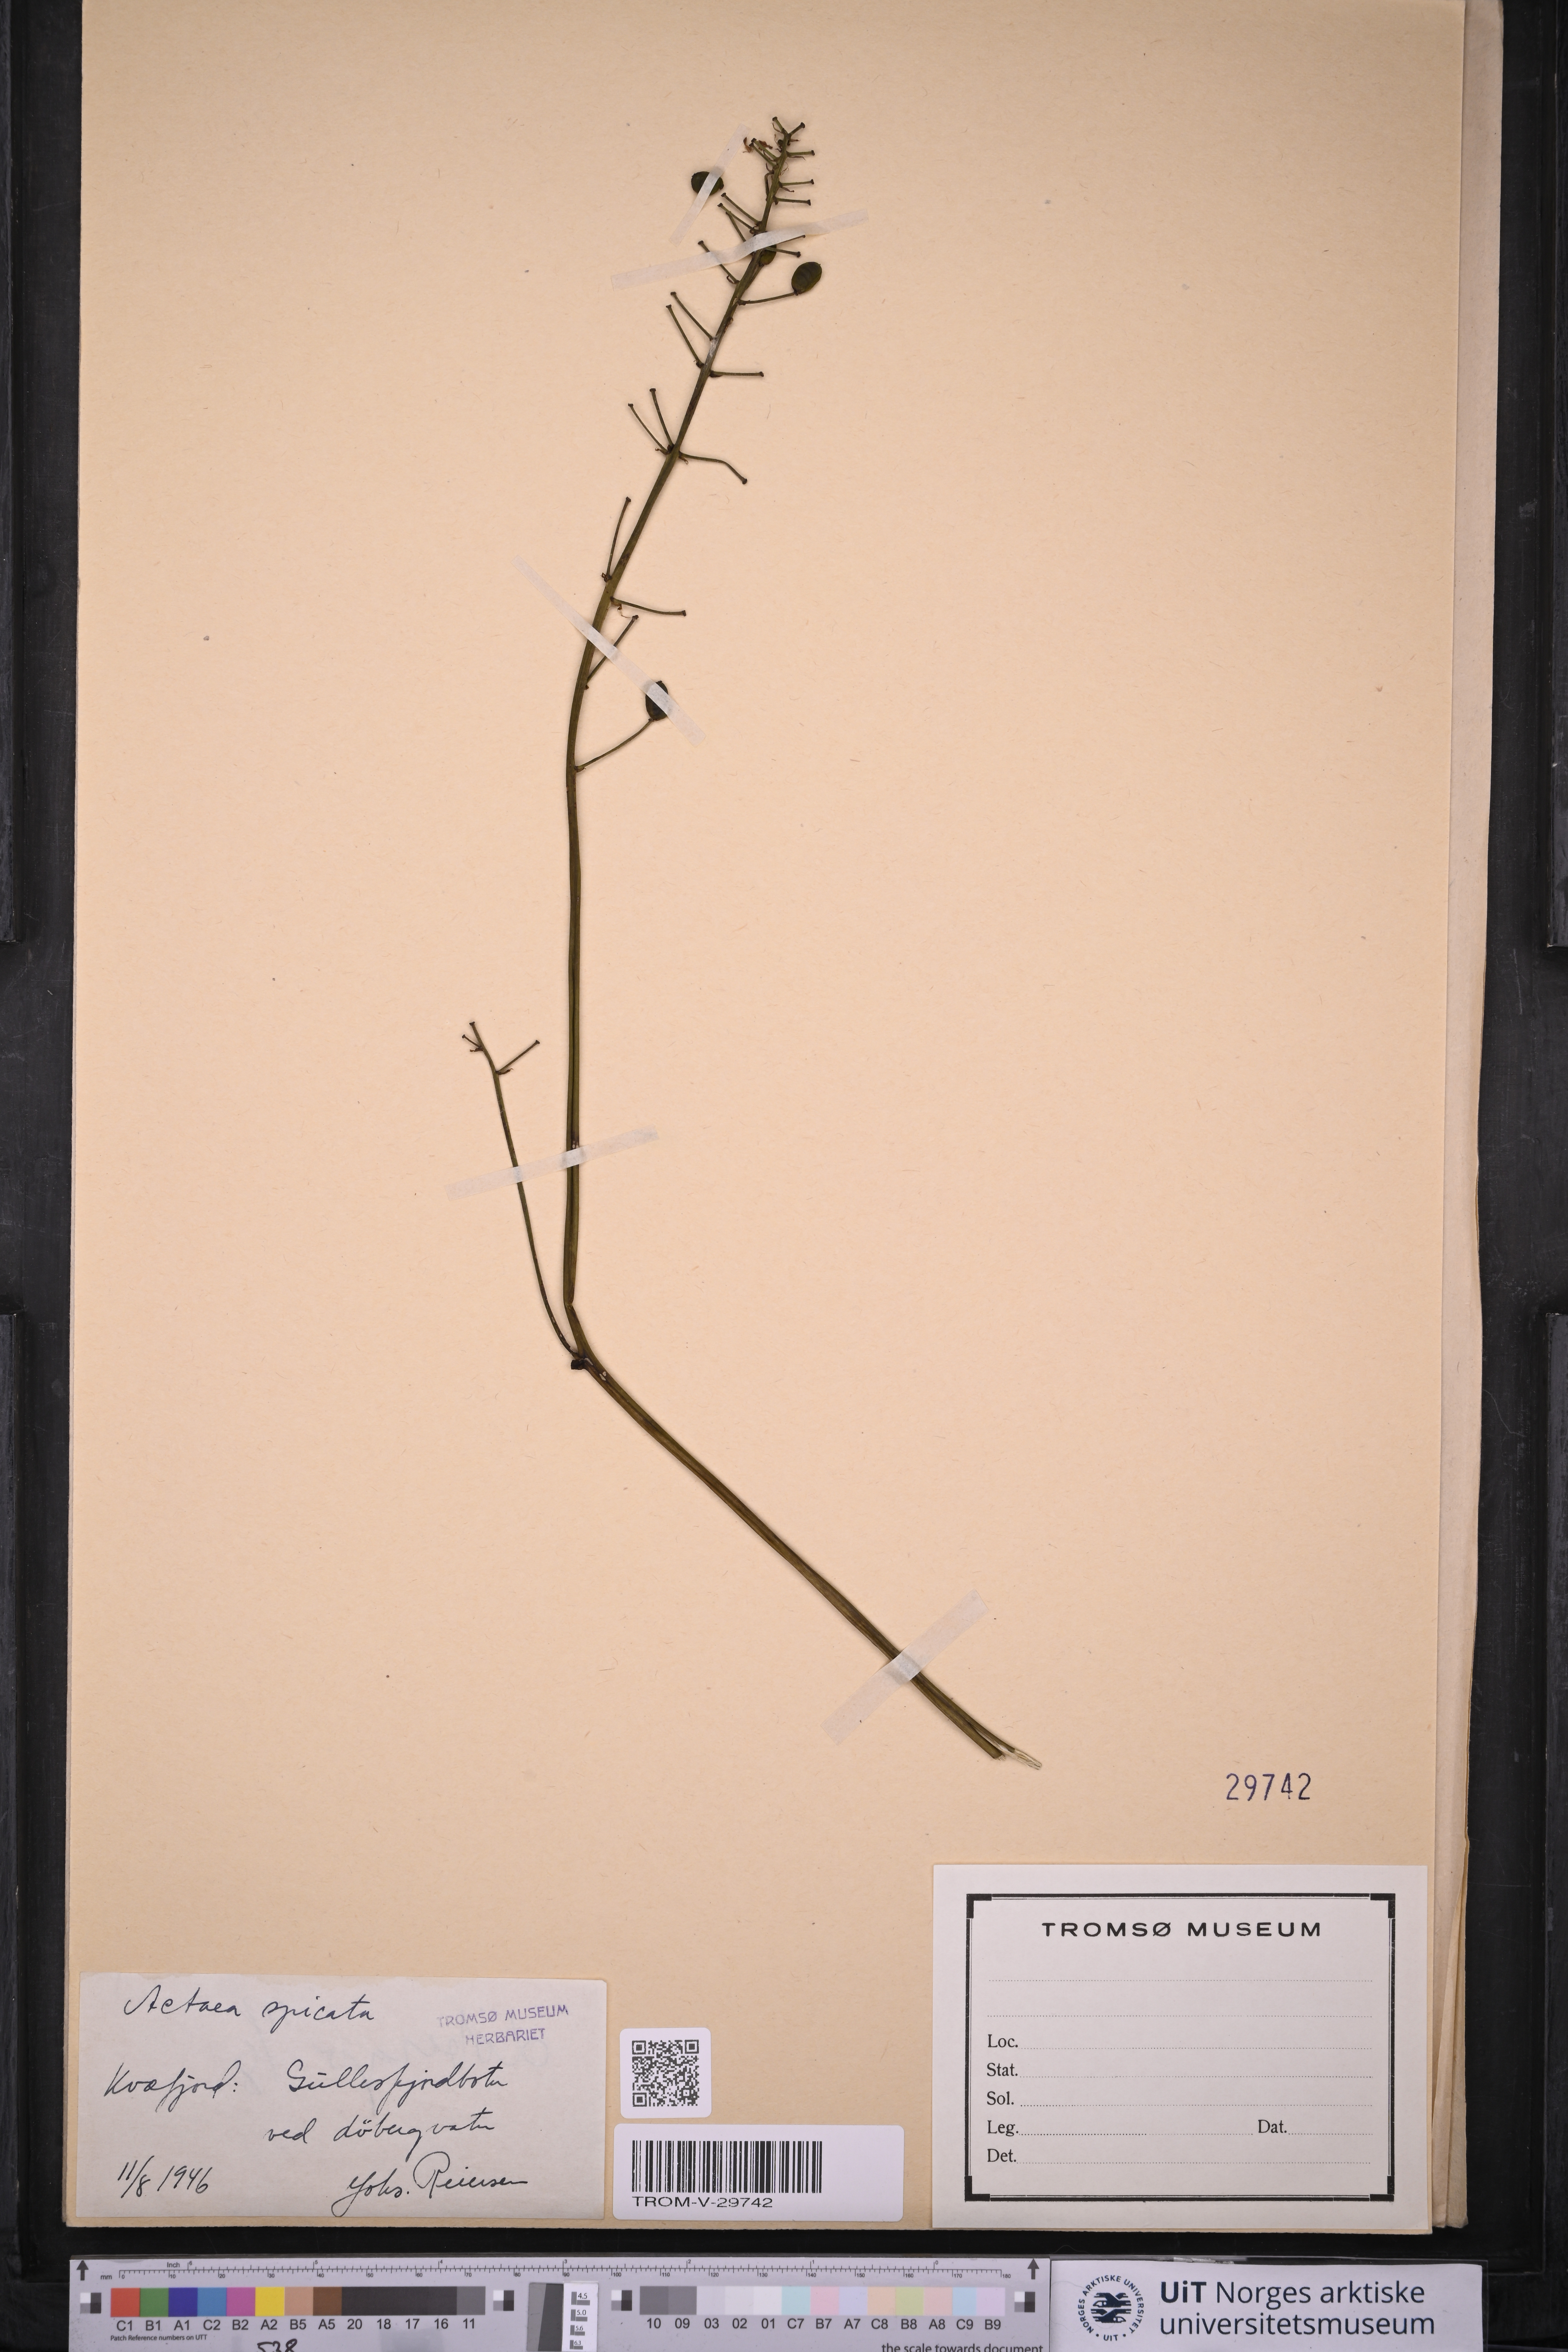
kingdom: Plantae
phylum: Tracheophyta
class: Magnoliopsida
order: Ranunculales
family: Ranunculaceae
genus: Actaea
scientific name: Actaea spicata
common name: Baneberry
